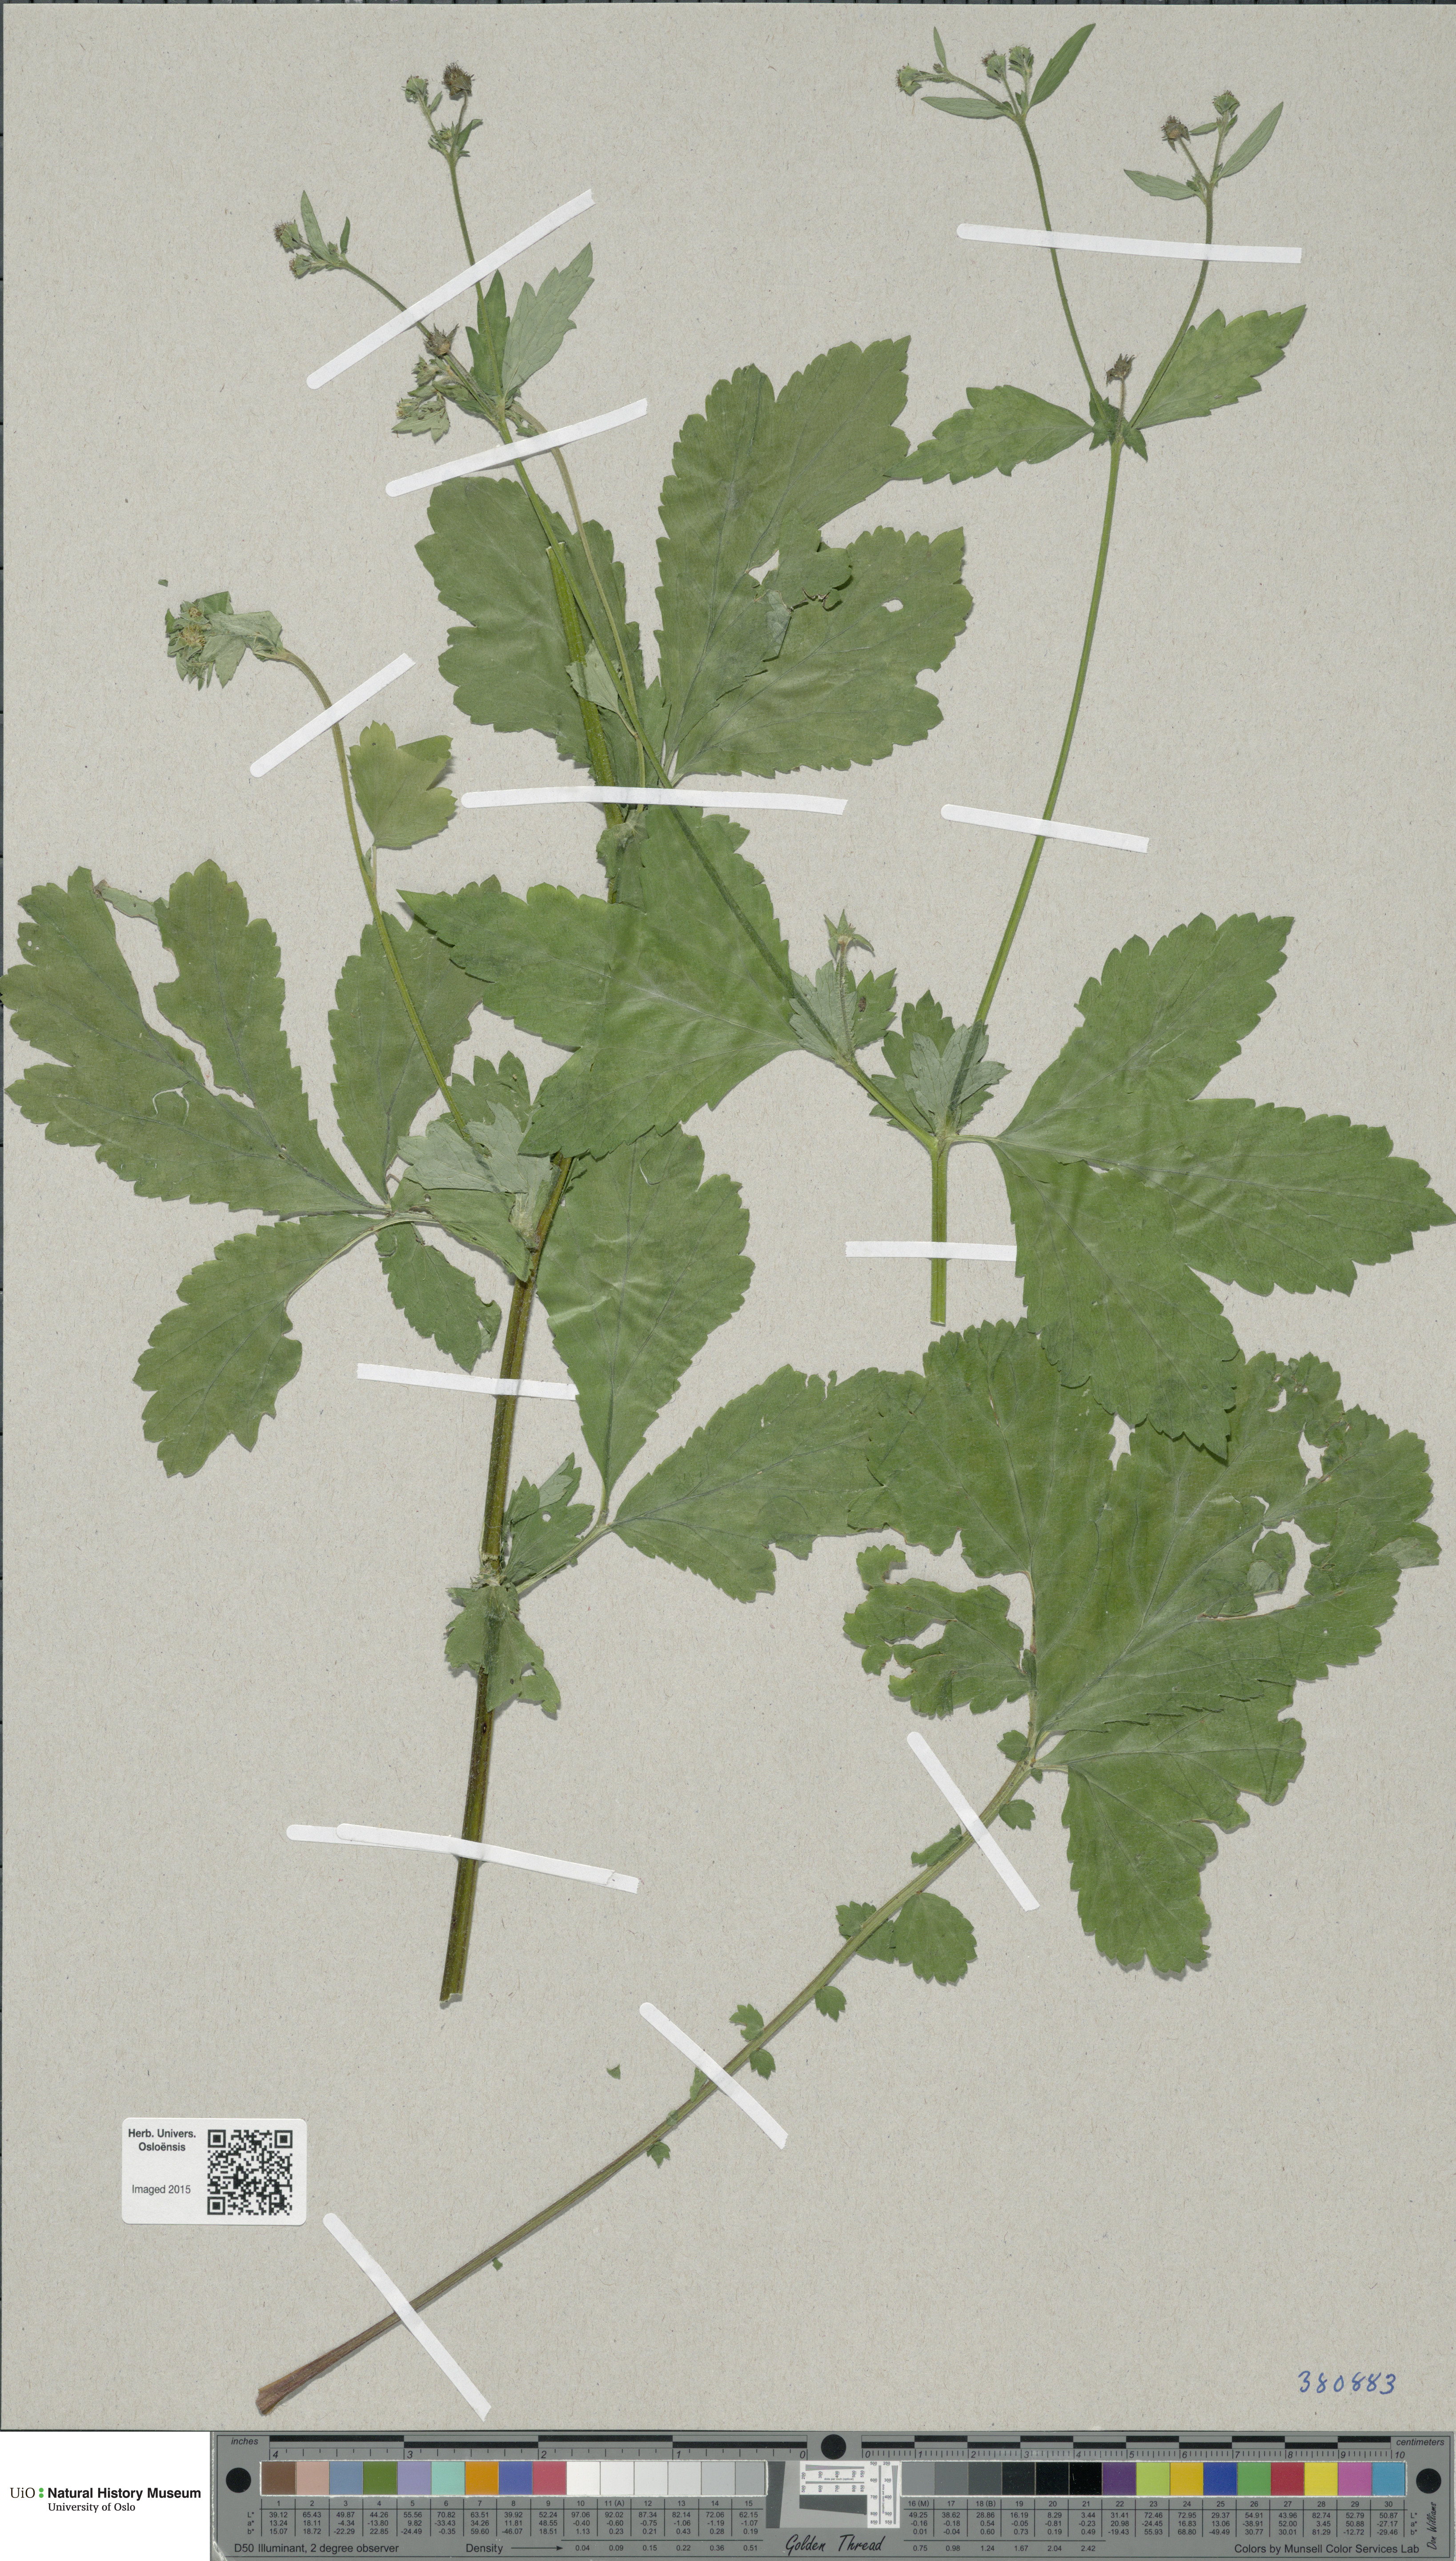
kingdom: Plantae
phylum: Tracheophyta
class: Magnoliopsida
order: Rosales
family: Rosaceae
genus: Geum
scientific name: Geum
